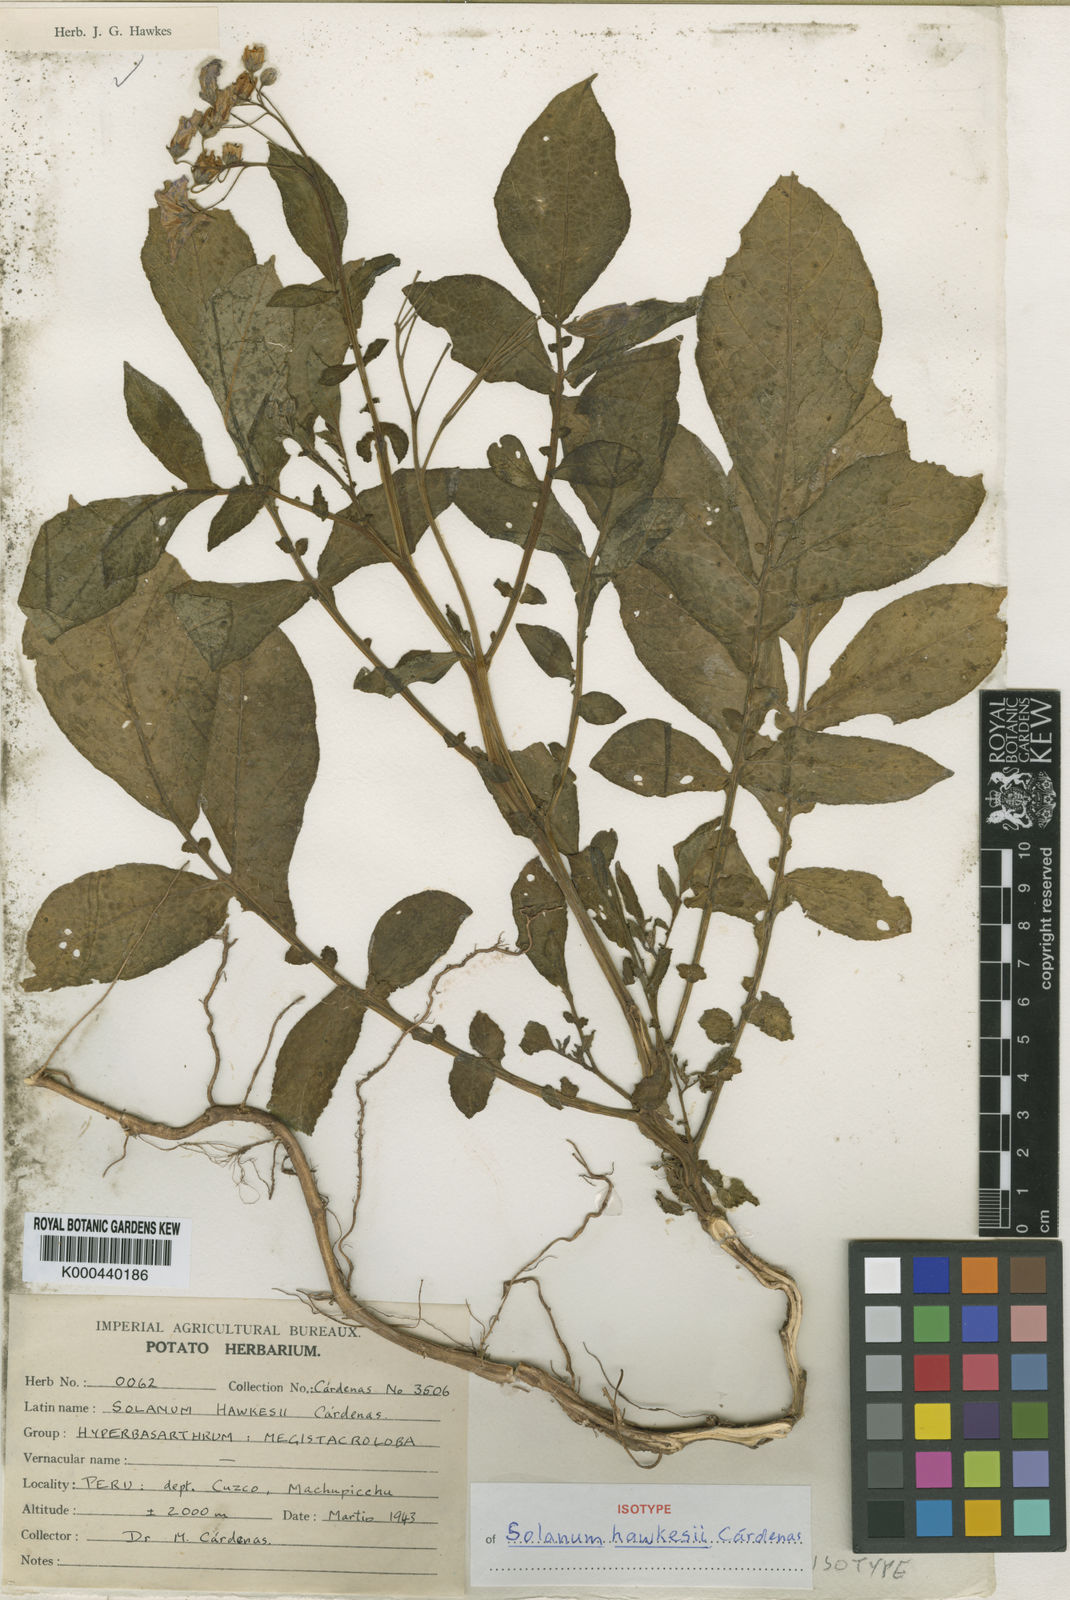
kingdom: Plantae
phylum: Tracheophyta
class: Magnoliopsida
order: Solanales
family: Solanaceae
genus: Solanum
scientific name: Solanum
